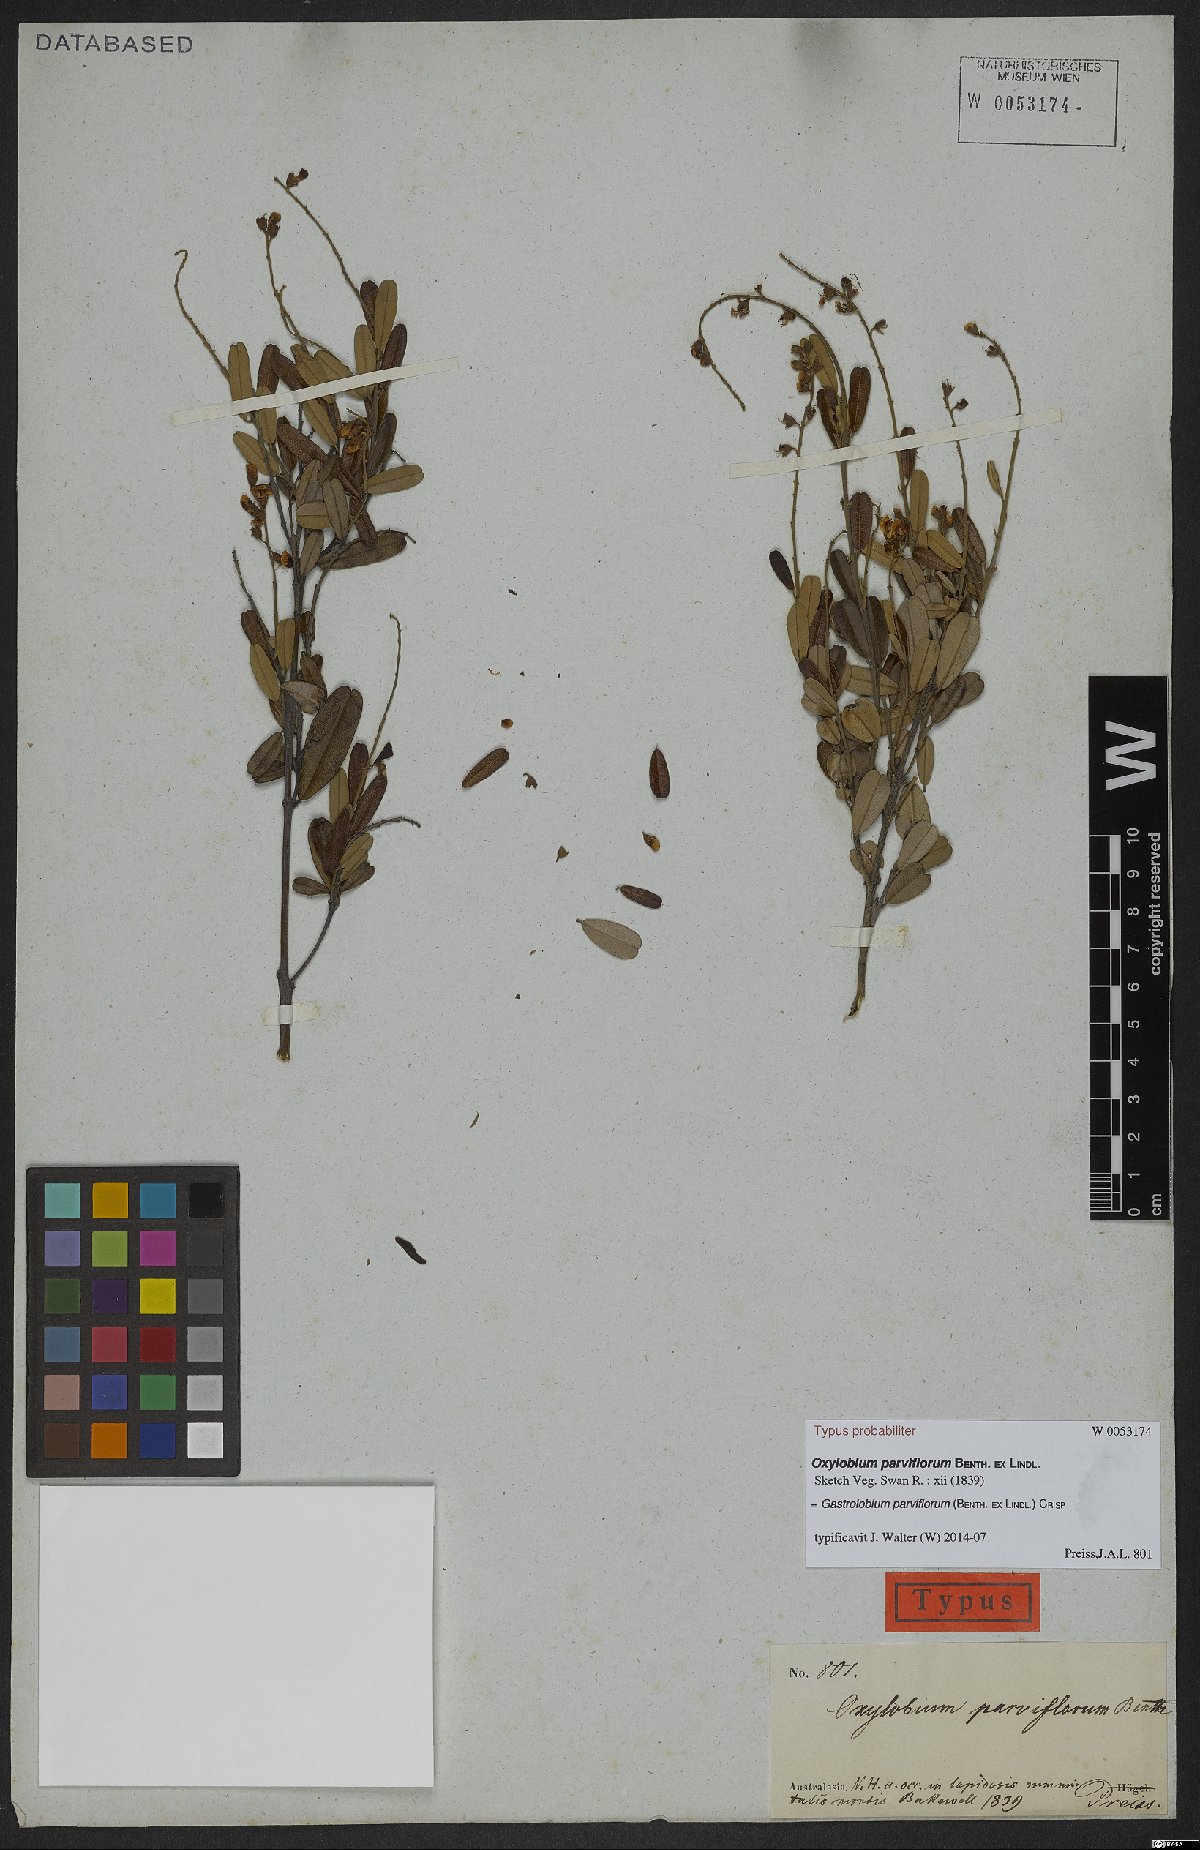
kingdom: Plantae
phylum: Tracheophyta
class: Magnoliopsida
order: Fabales
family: Fabaceae
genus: Gastrolobium
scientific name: Gastrolobium parviflorum
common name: Berry poisonbush
